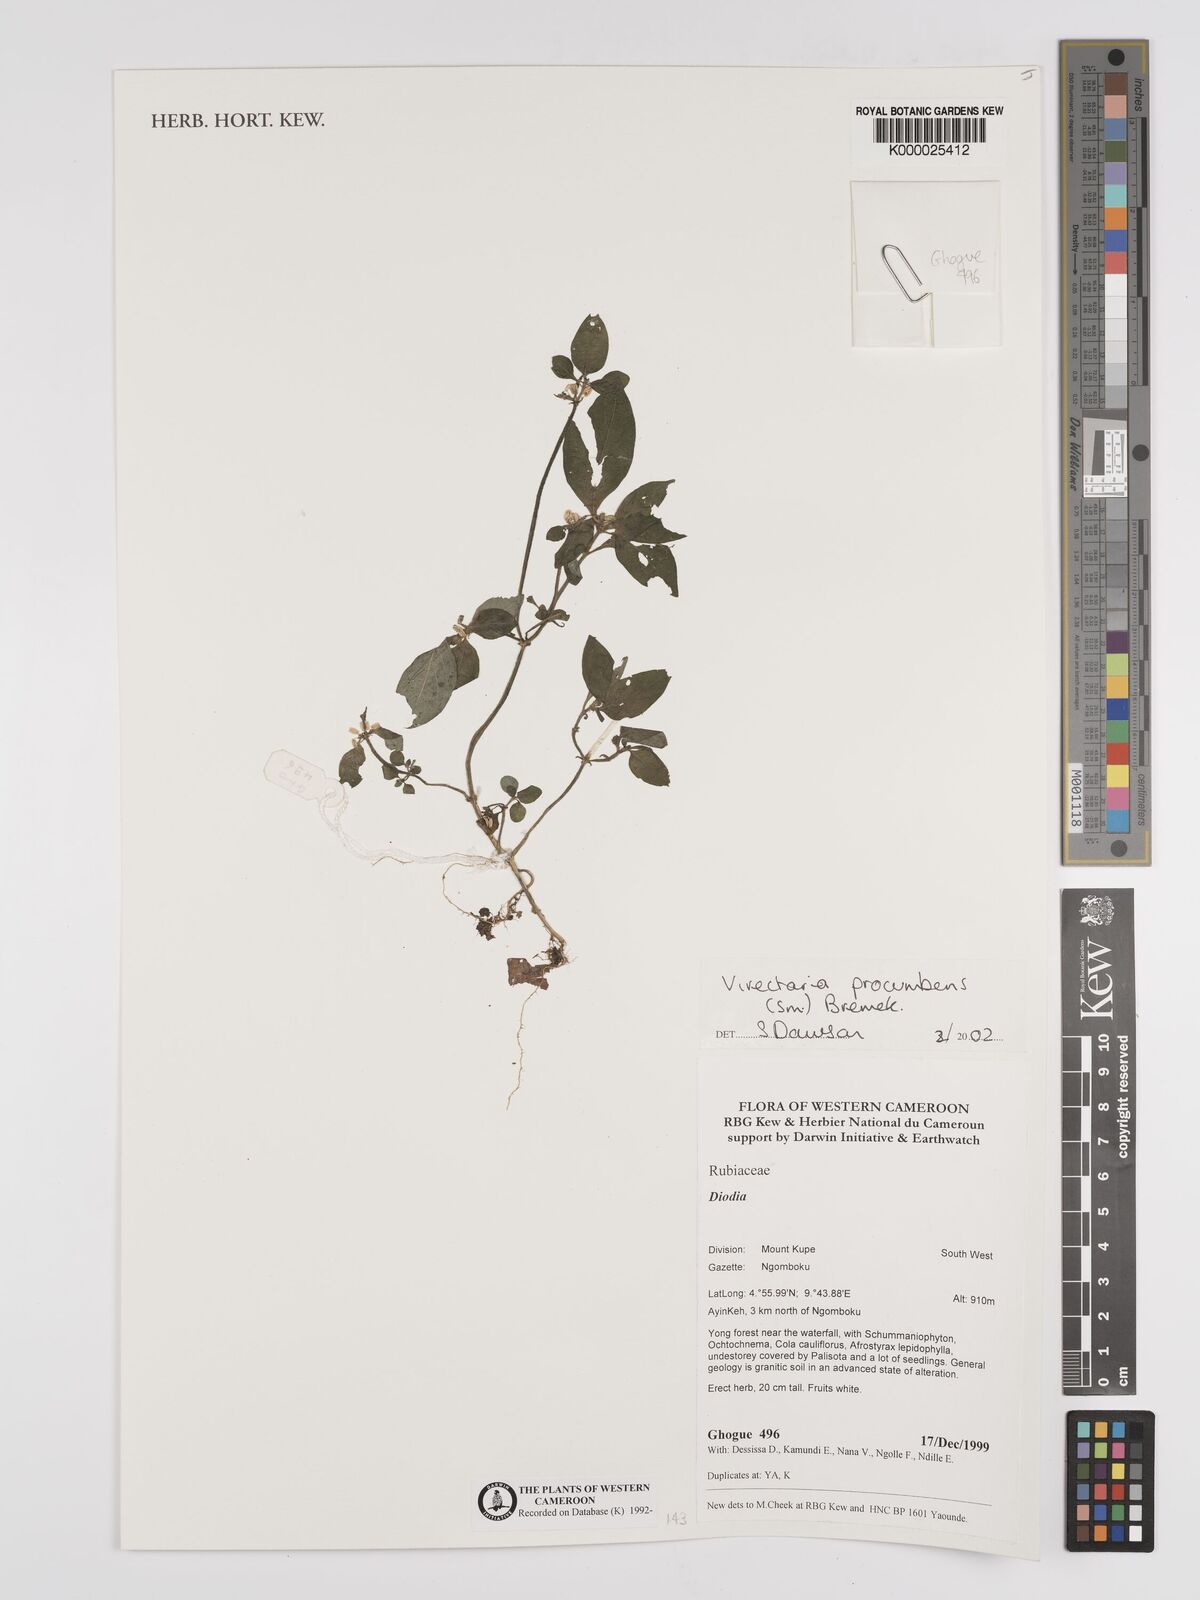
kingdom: Plantae
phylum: Tracheophyta
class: Magnoliopsida
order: Gentianales
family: Rubiaceae
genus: Virectaria
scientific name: Virectaria procumbens
